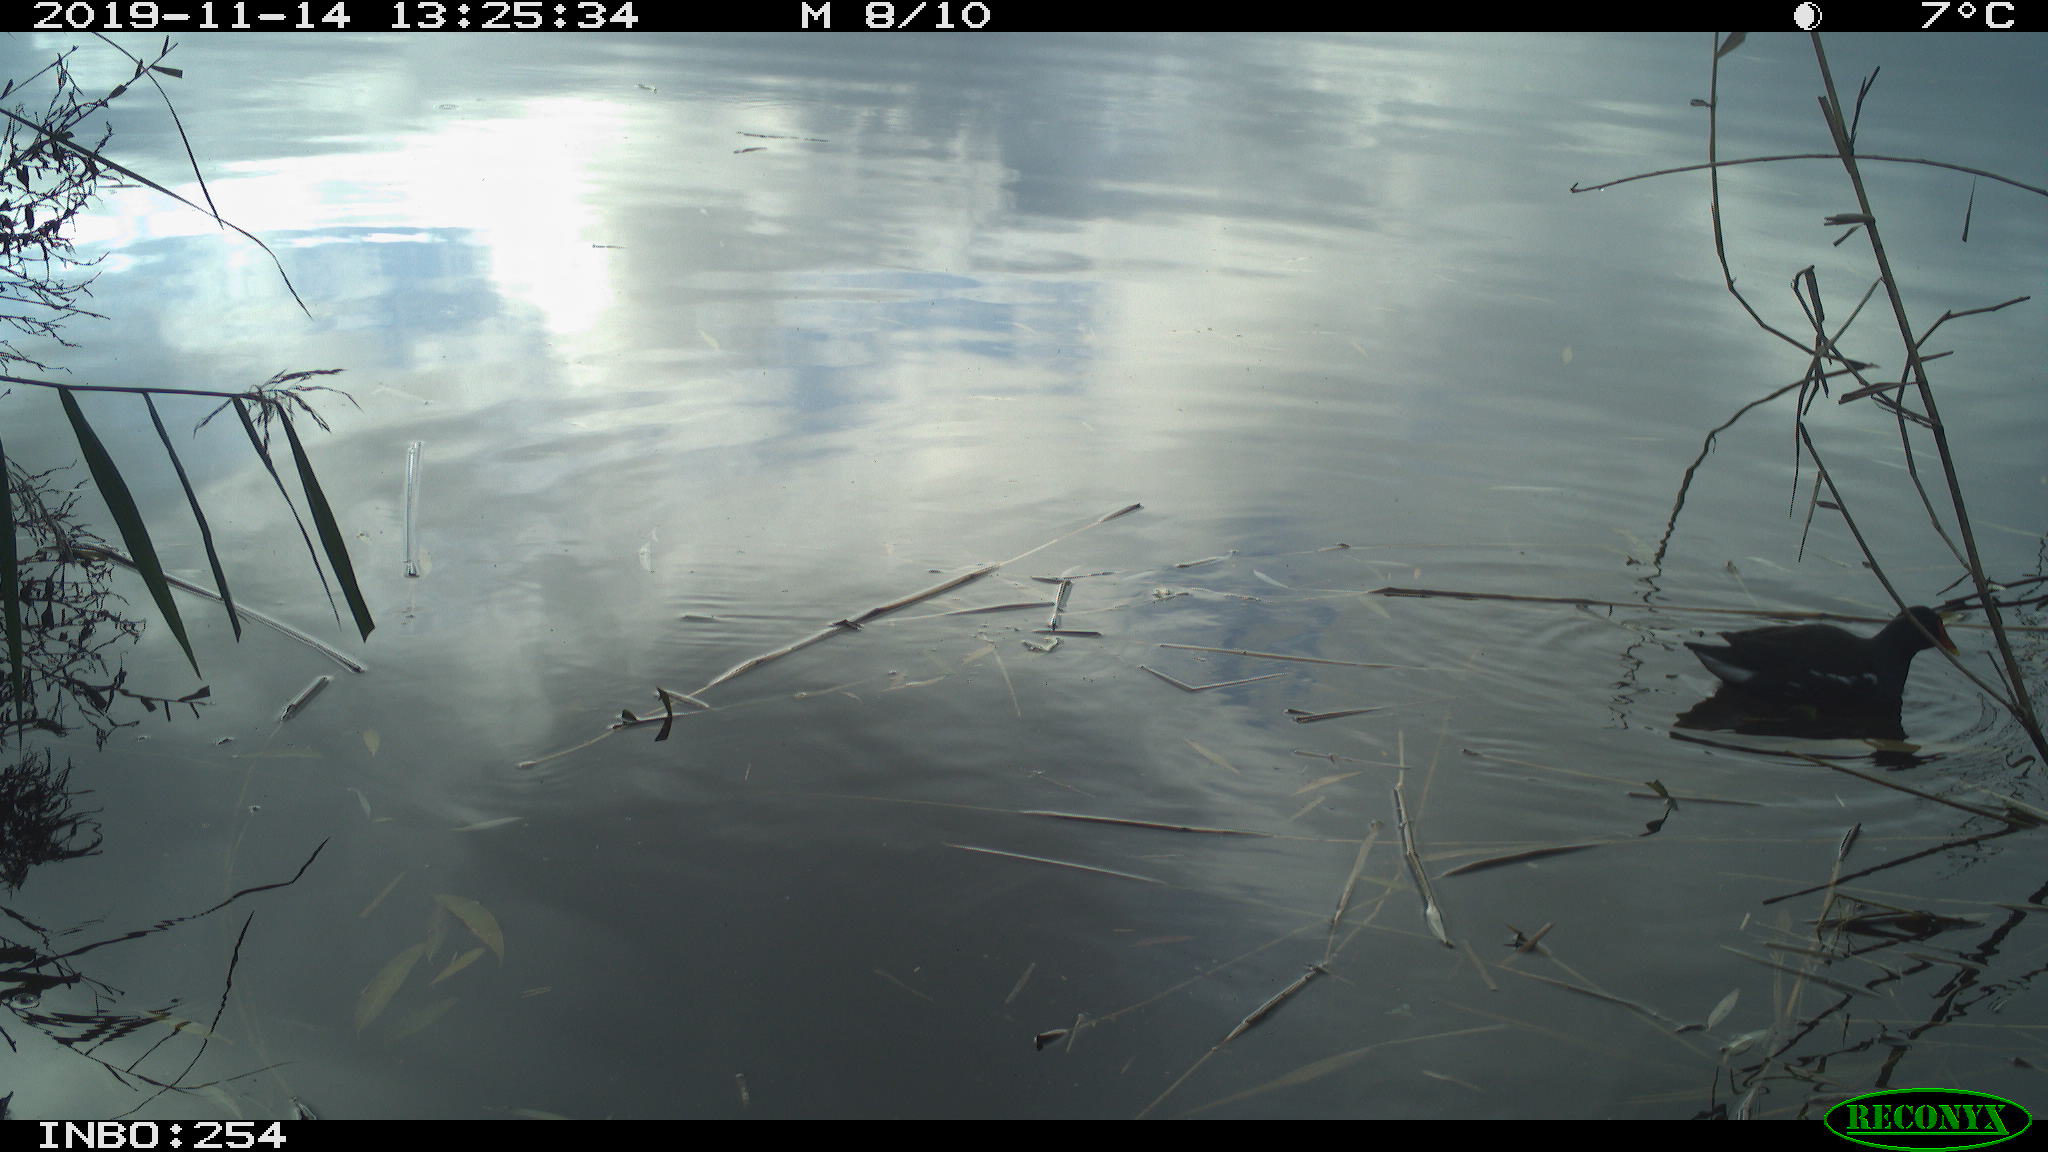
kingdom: Animalia
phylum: Chordata
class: Aves
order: Gruiformes
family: Rallidae
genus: Gallinula
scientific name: Gallinula chloropus
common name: Common moorhen
